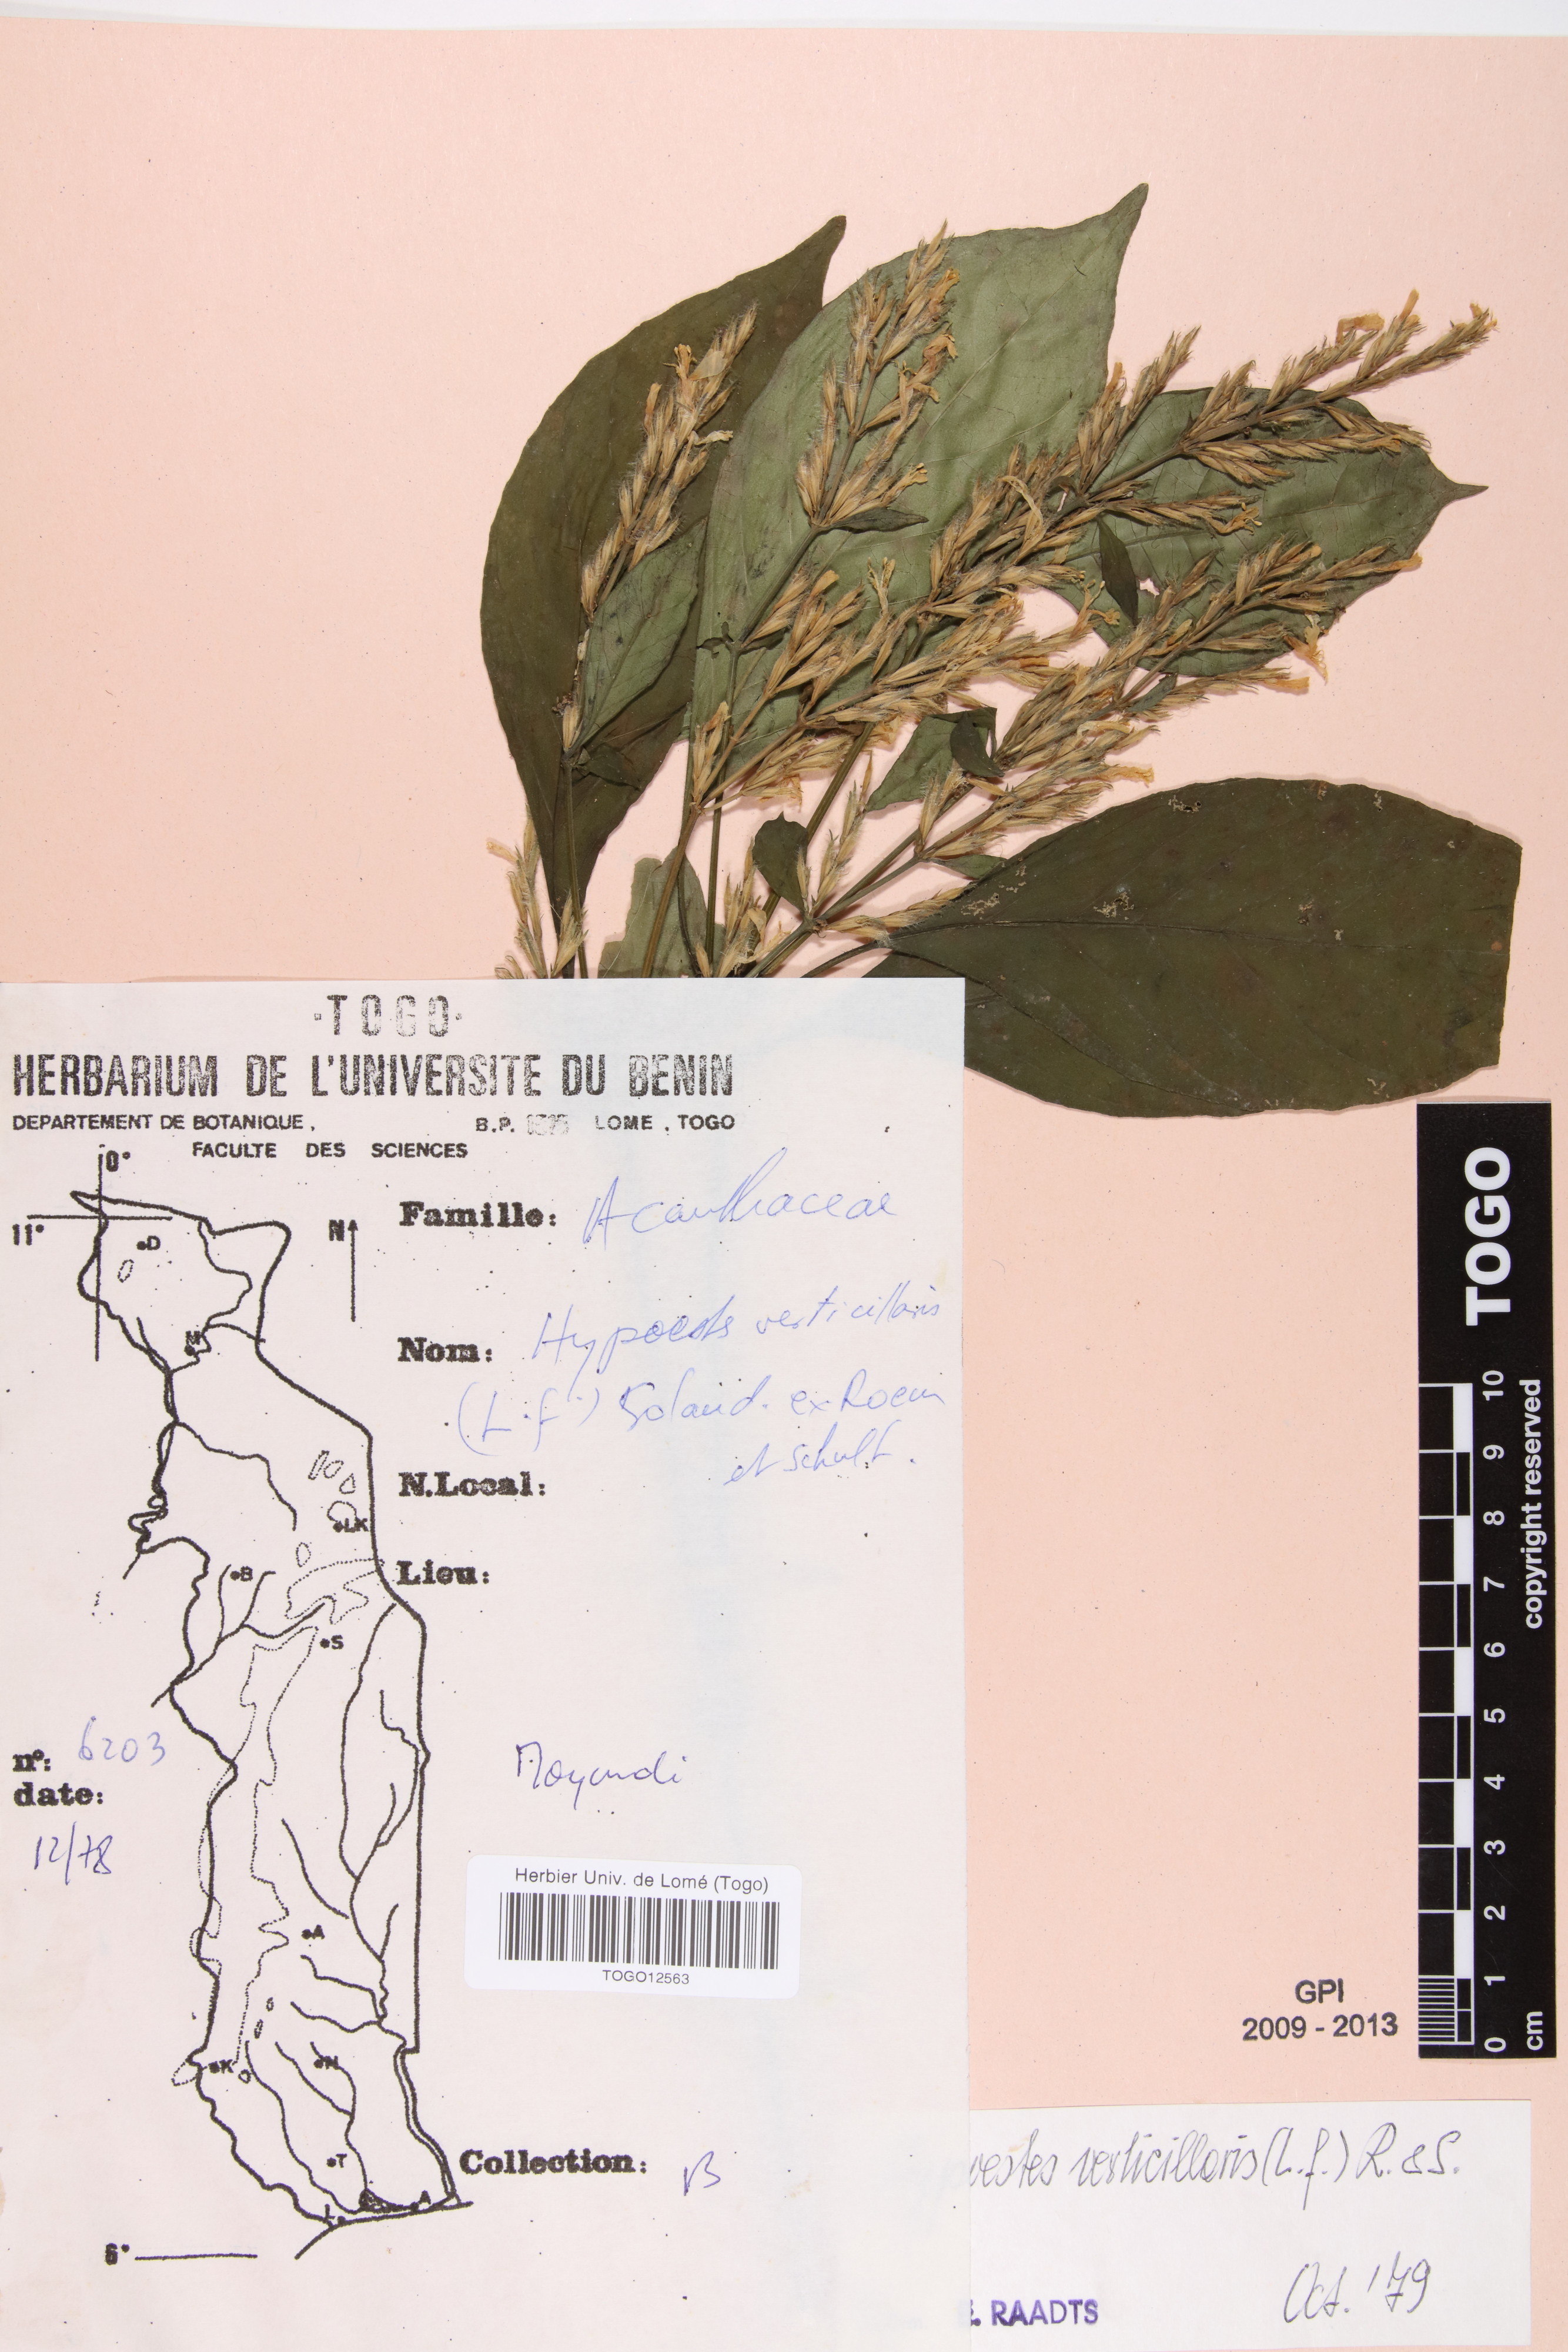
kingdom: Plantae
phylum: Tracheophyta
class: Magnoliopsida
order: Lamiales
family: Acanthaceae
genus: Hypoestes
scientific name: Hypoestes aristata
